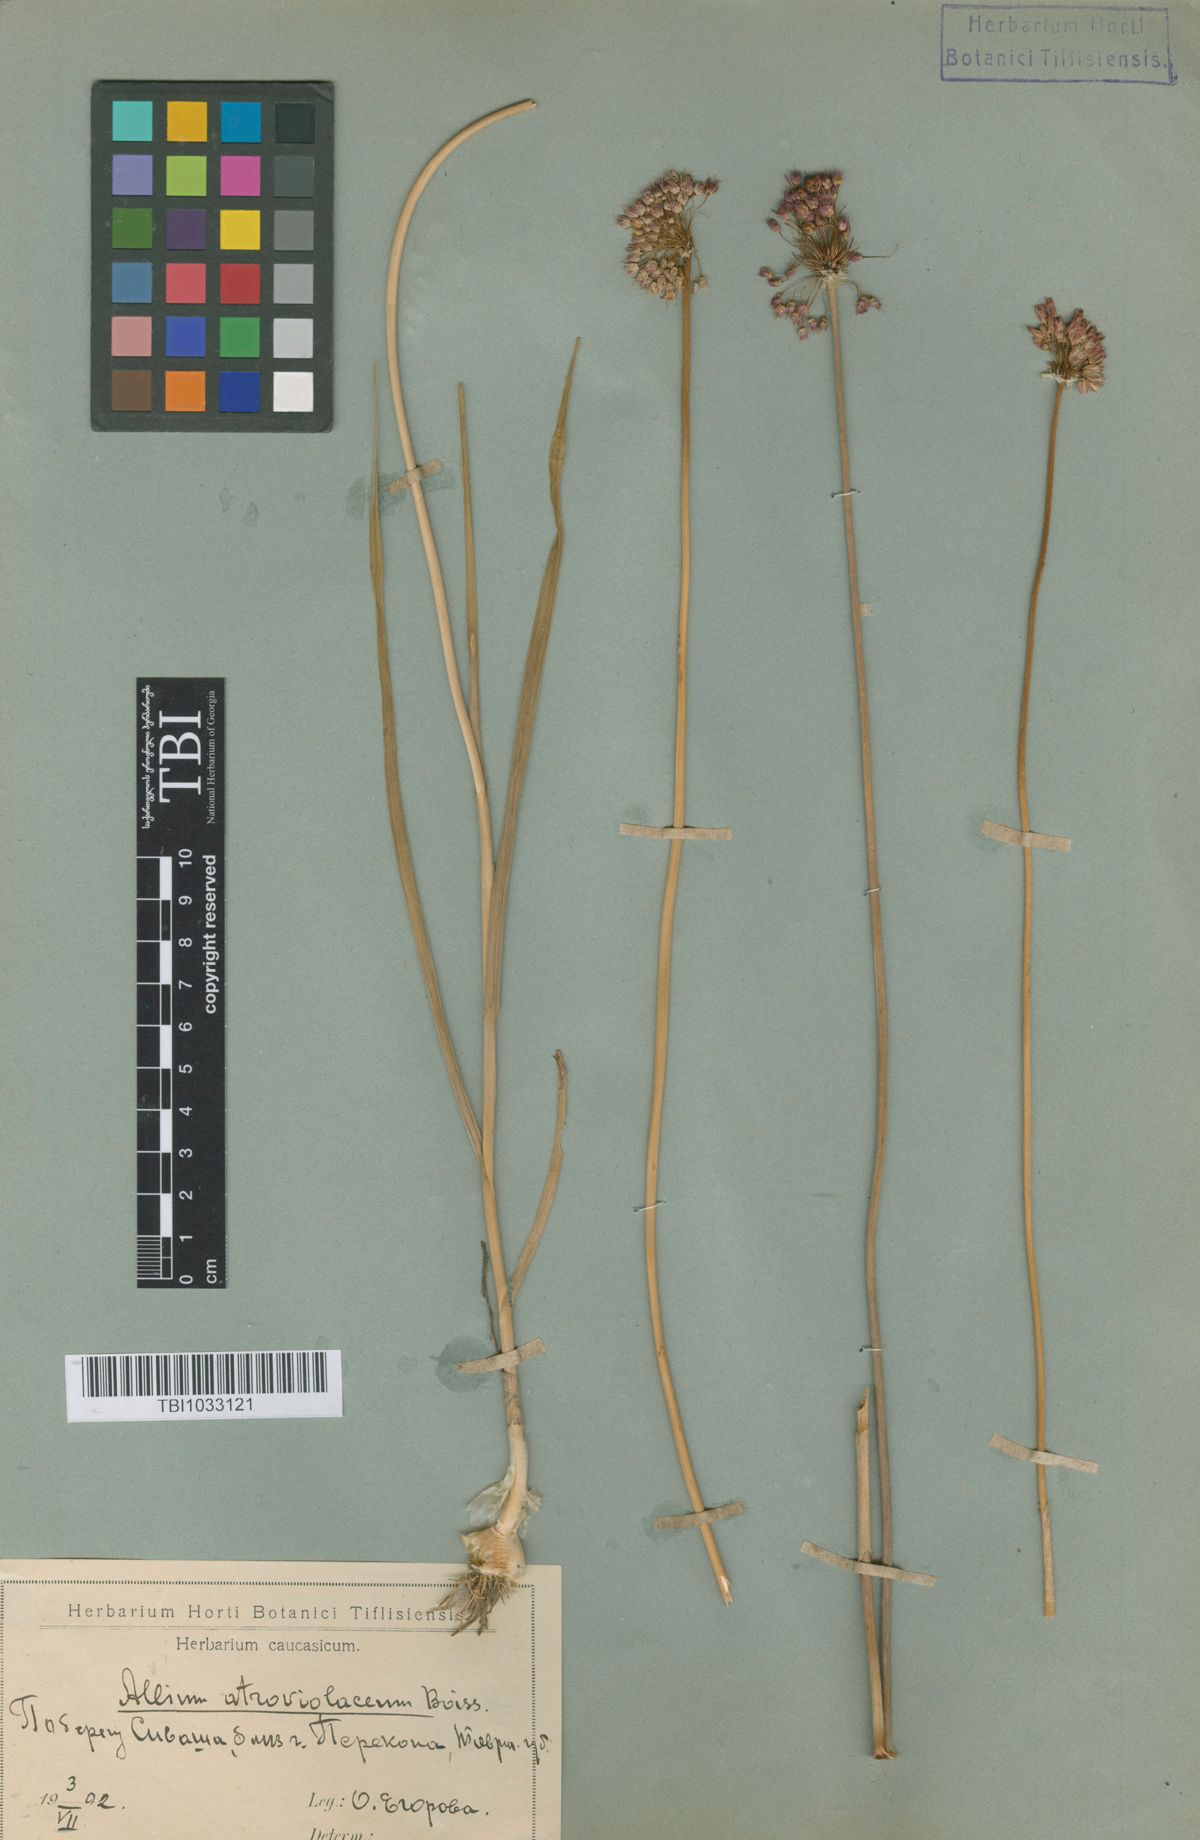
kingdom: Plantae
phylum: Tracheophyta
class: Liliopsida
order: Asparagales
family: Amaryllidaceae
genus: Allium
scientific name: Allium atroviolaceum
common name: Broadleaf wild leek
